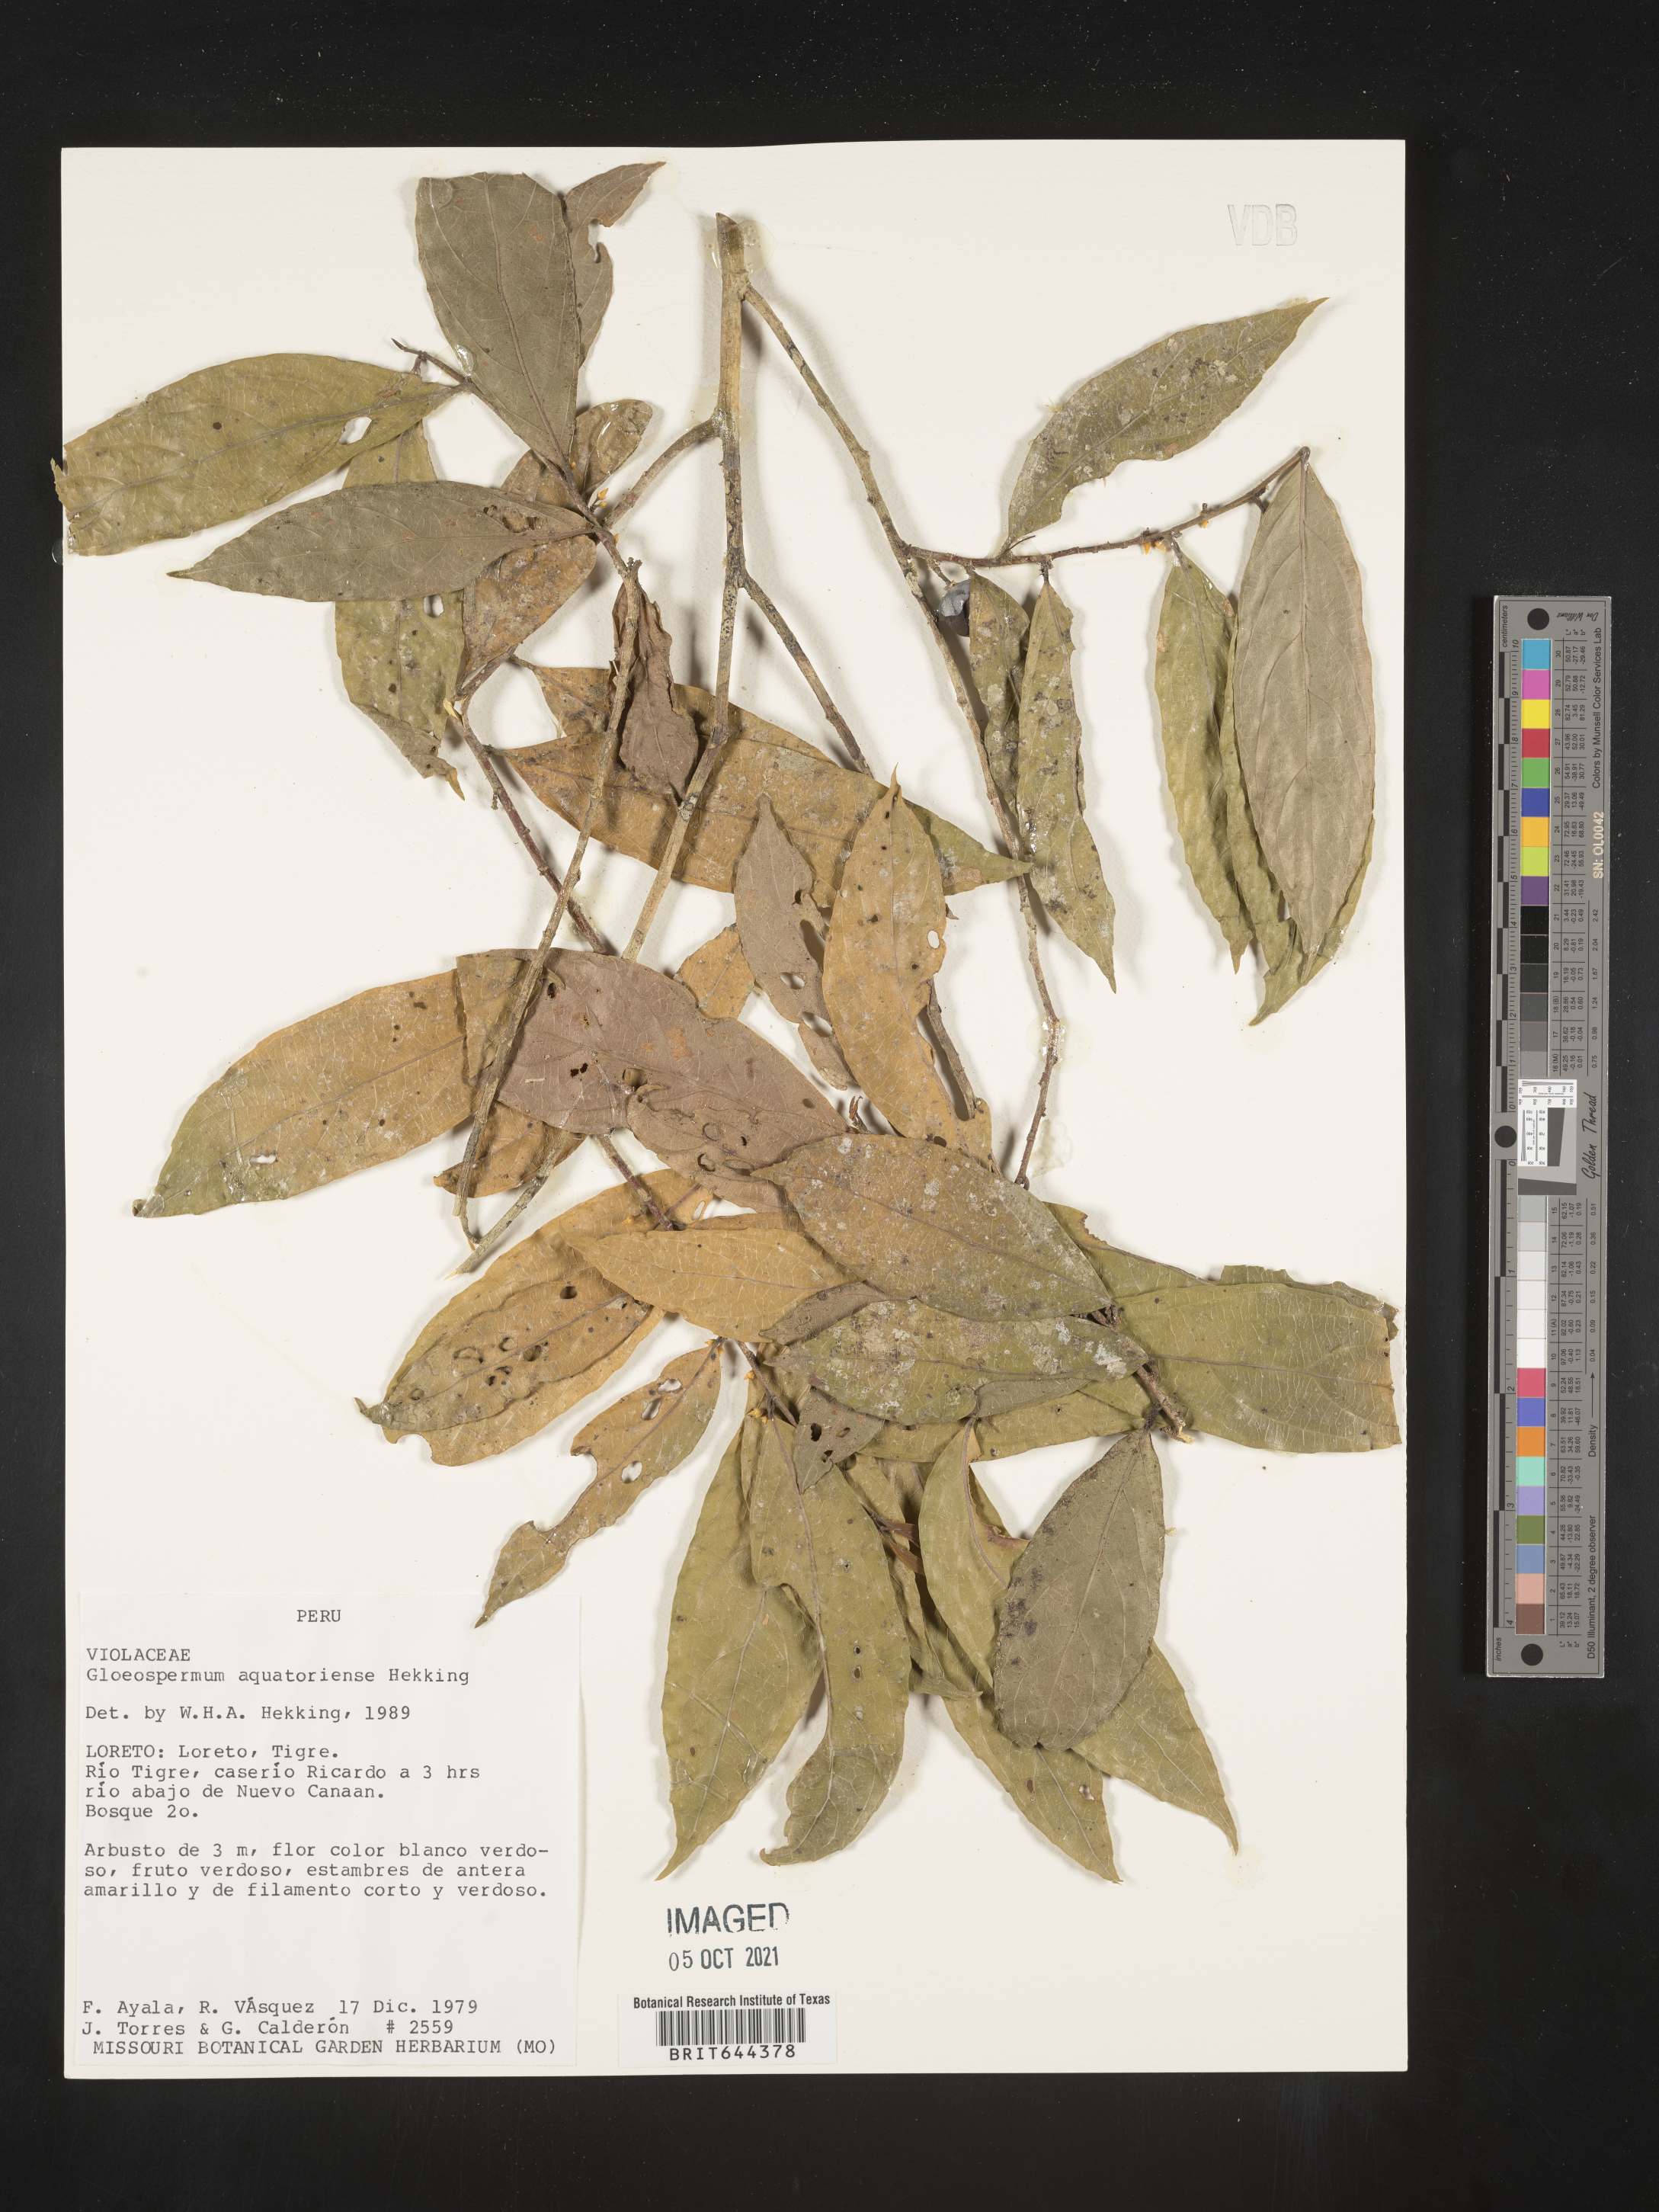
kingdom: Plantae
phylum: Tracheophyta
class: Magnoliopsida
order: Malpighiales
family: Violaceae
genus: Gloeospermum
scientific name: Gloeospermum
